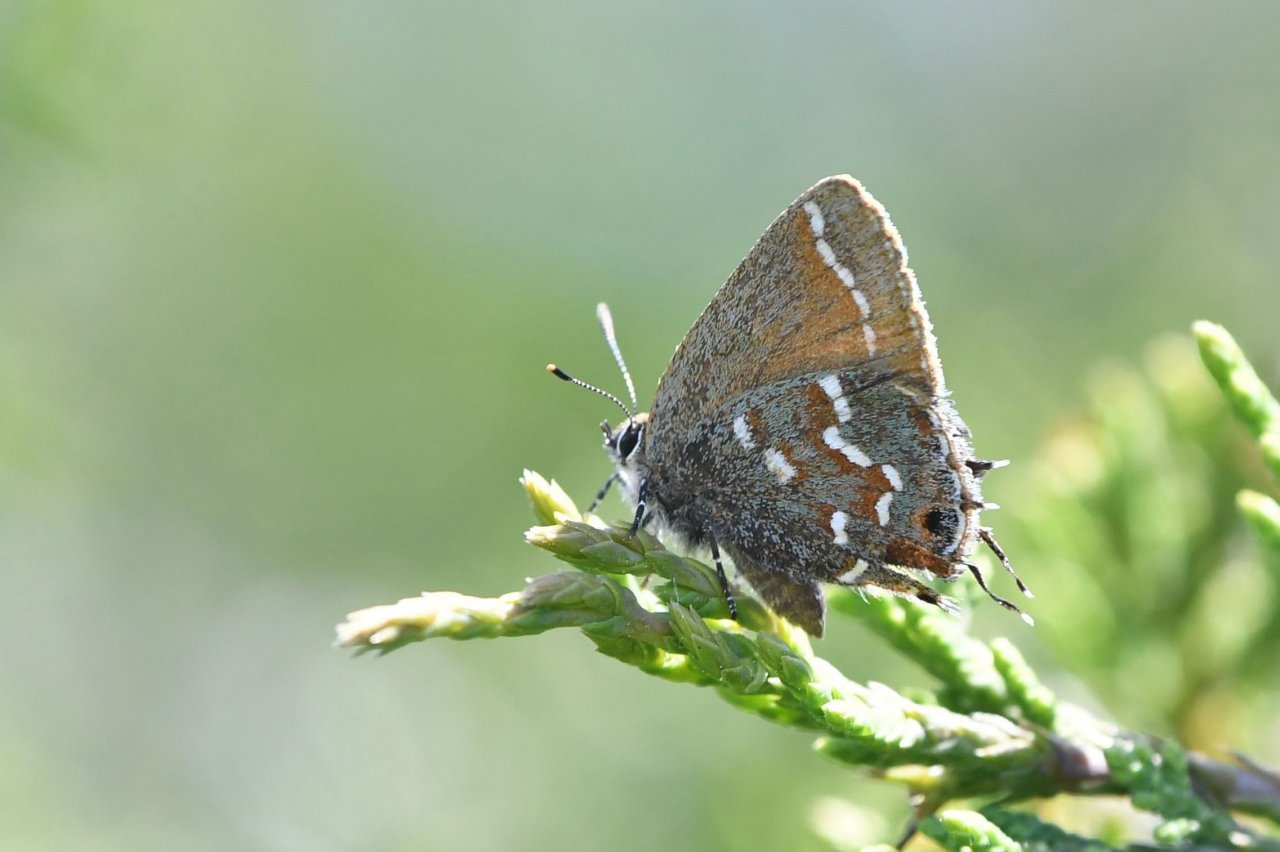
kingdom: Animalia
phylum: Arthropoda
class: Insecta
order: Lepidoptera
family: Lycaenidae
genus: Mitoura
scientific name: Mitoura gryneus
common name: Juniper Hairstreak
